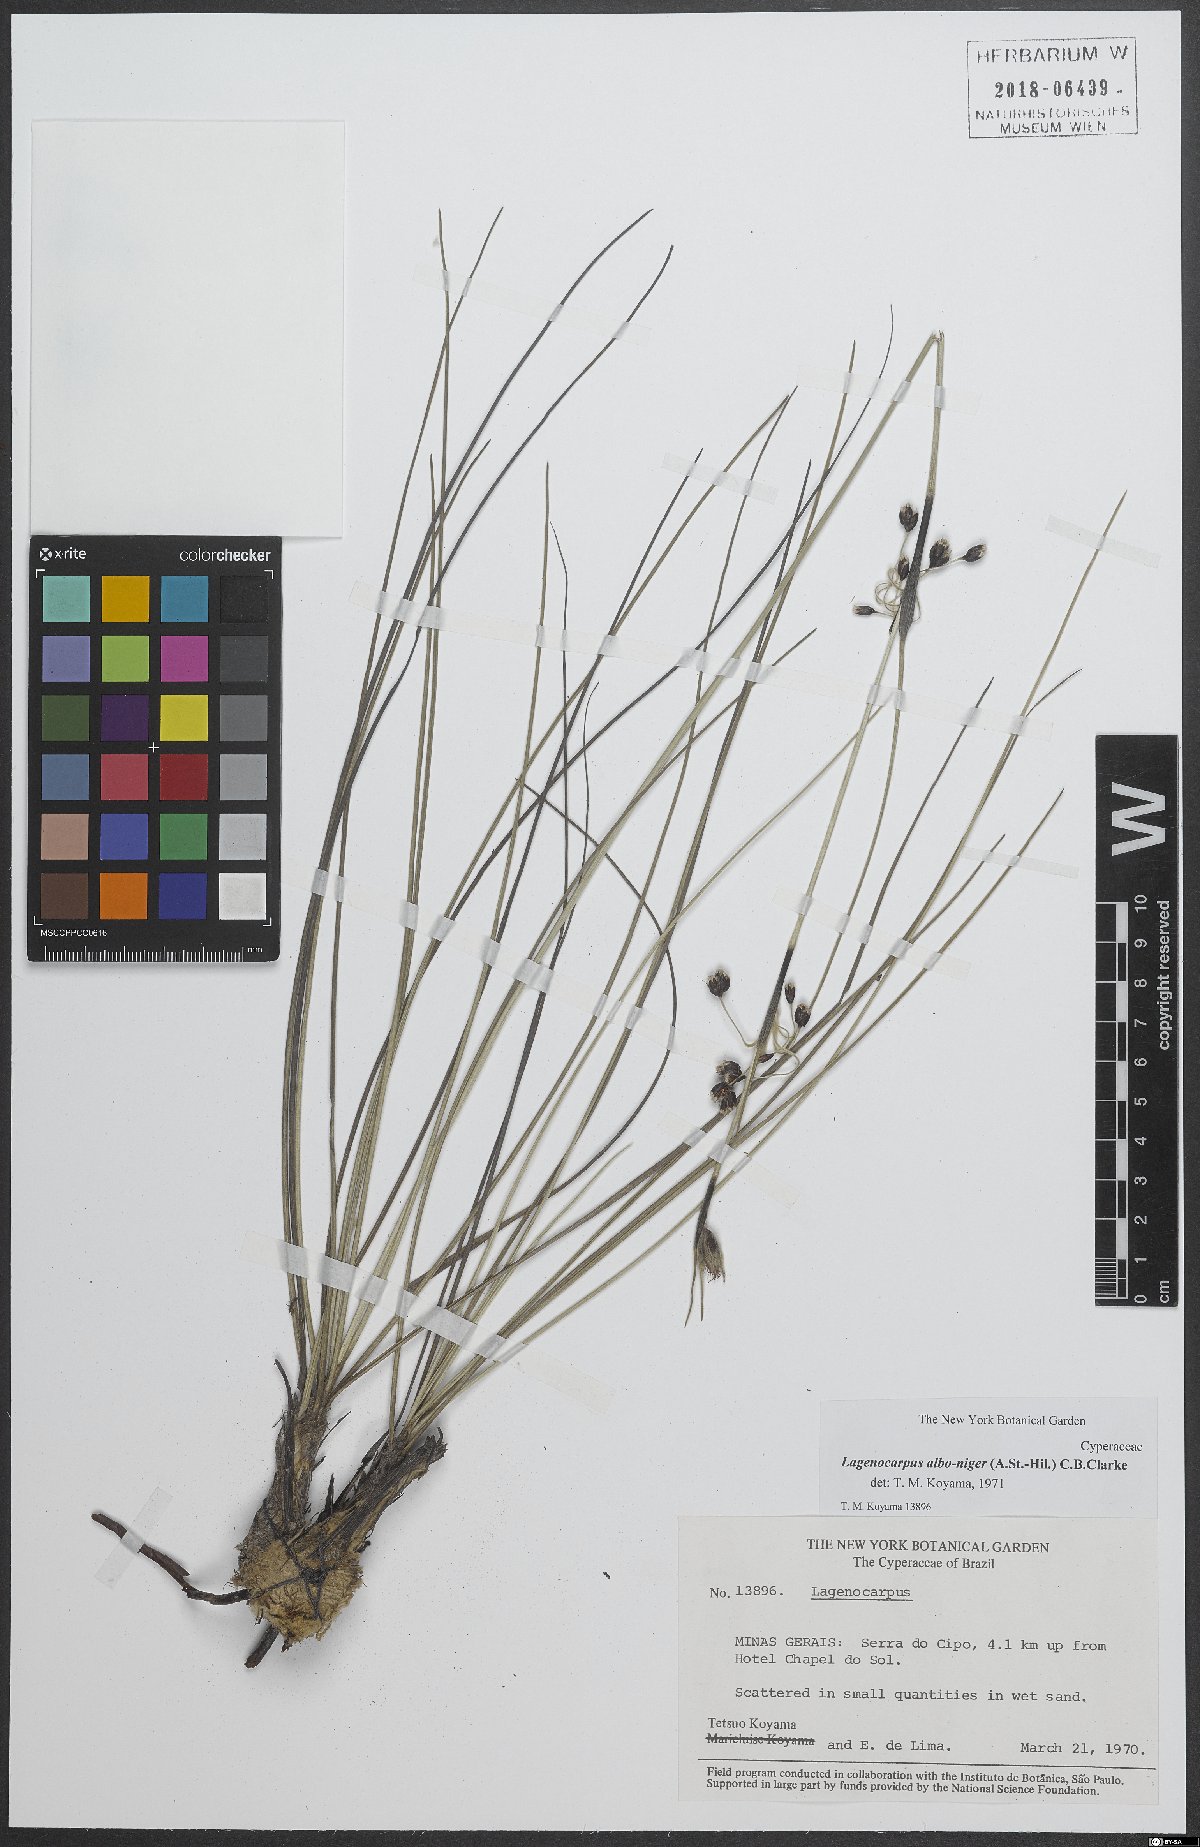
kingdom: Plantae
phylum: Tracheophyta
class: Liliopsida
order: Poales
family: Cyperaceae
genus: Lagenocarpus
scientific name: Lagenocarpus alboniger
